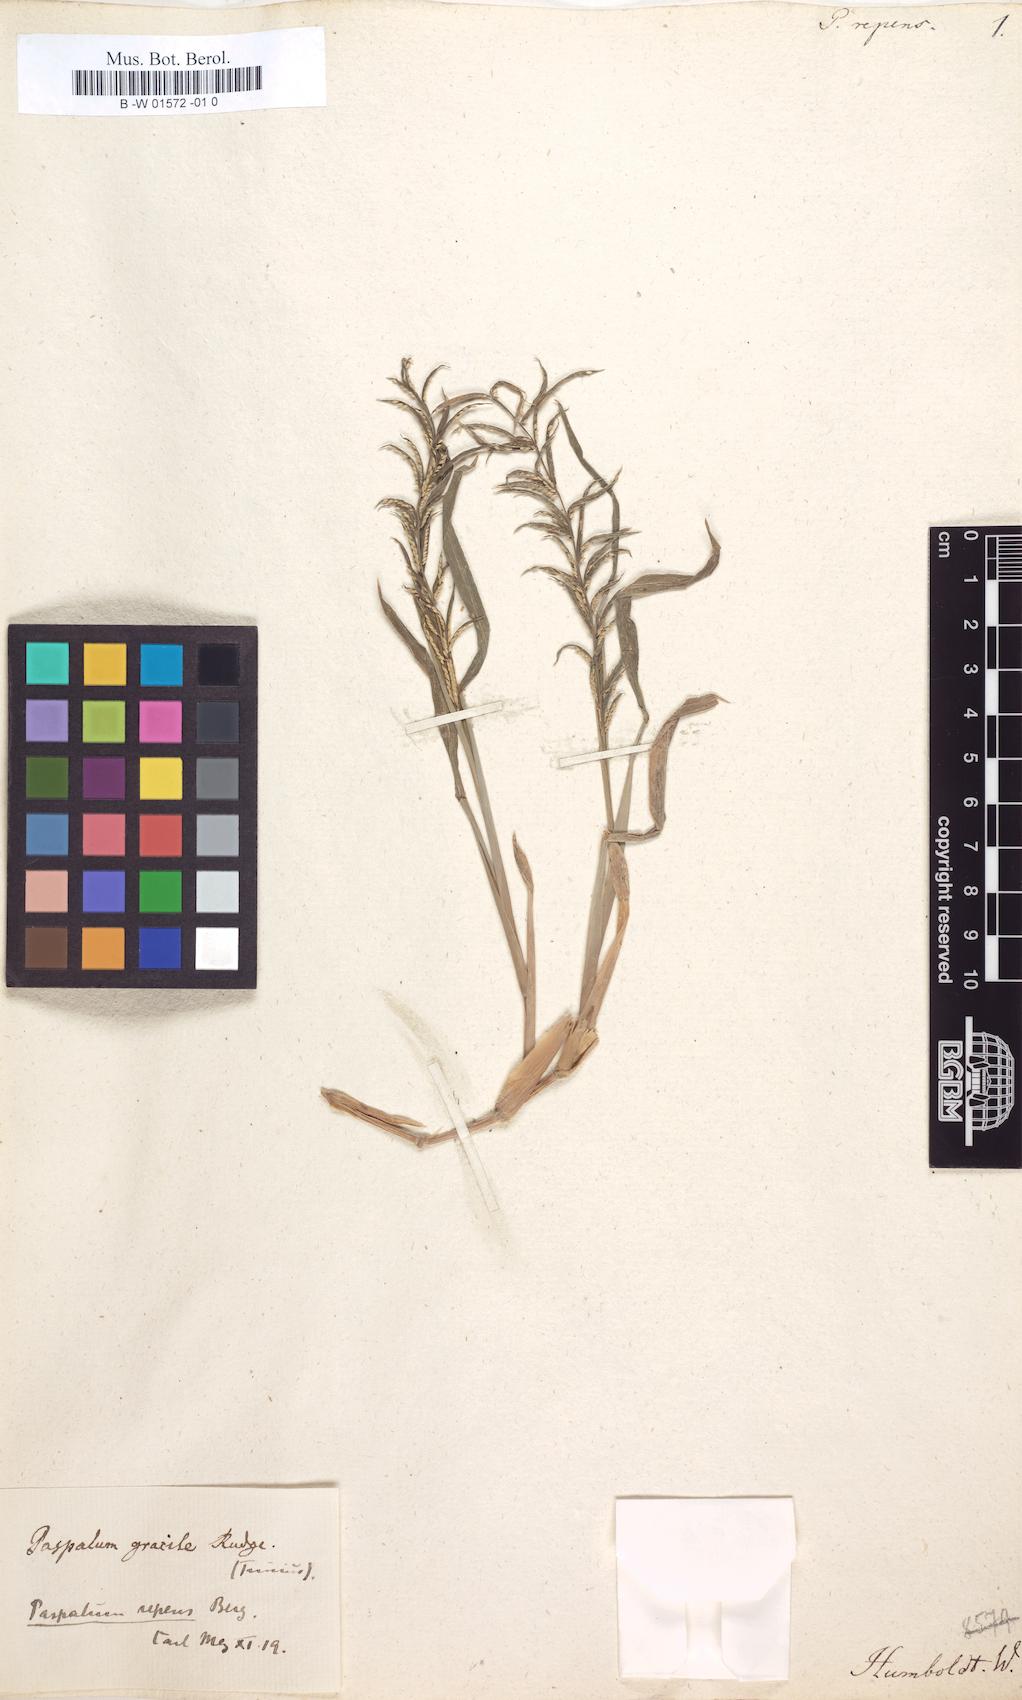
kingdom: Plantae
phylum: Tracheophyta
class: Liliopsida
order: Poales
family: Poaceae
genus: Paspalum
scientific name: Paspalum repens
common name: Water paspalum
